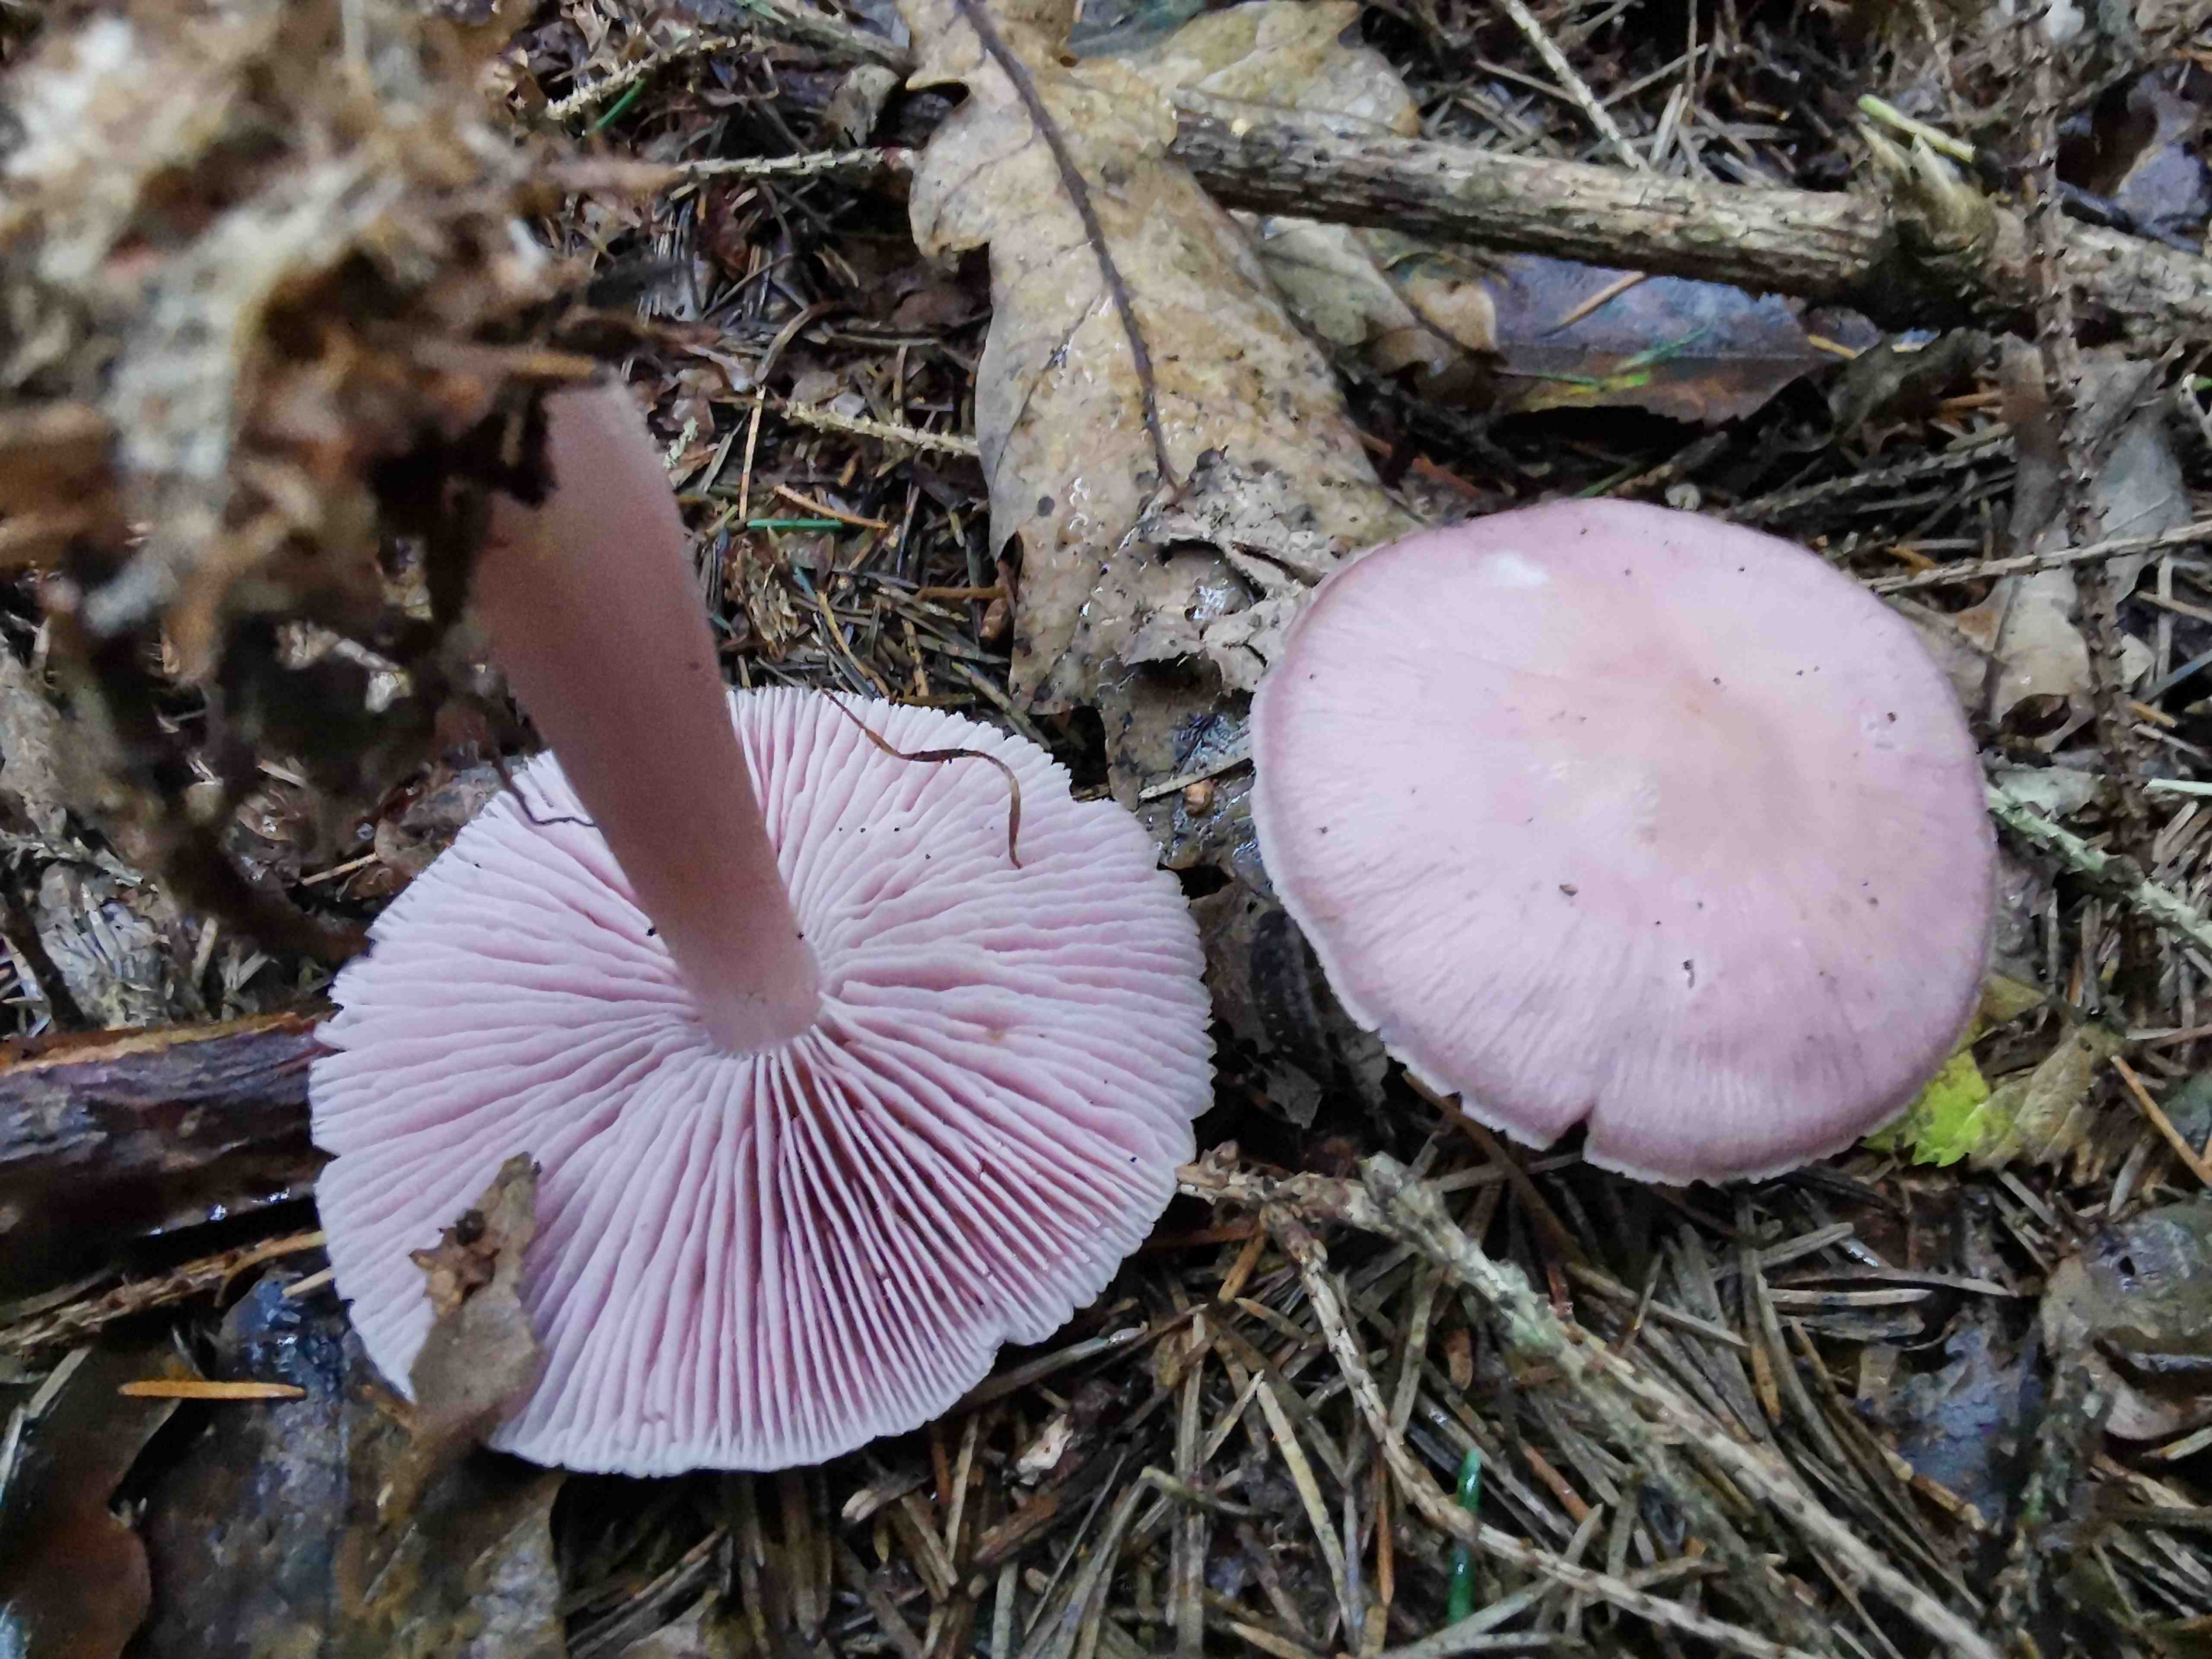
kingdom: Fungi
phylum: Basidiomycota
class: Agaricomycetes
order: Agaricales
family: Mycenaceae
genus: Mycena
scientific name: Mycena rosea
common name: rosa huesvamp
